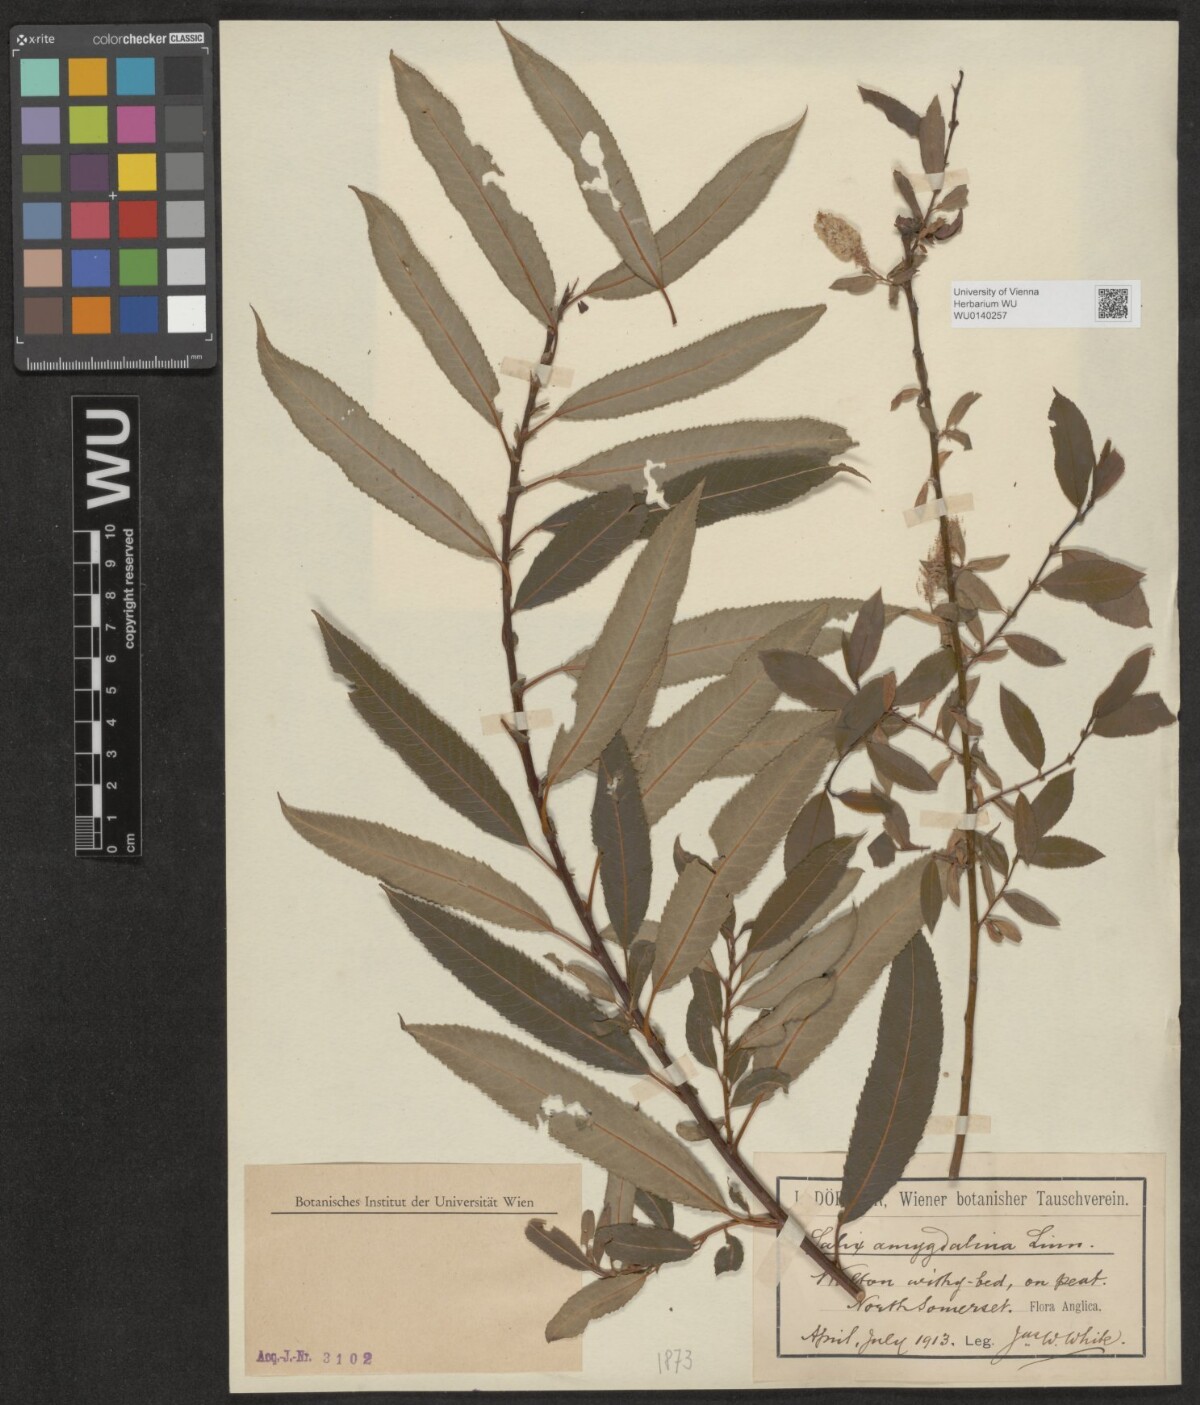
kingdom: Plantae
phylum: Tracheophyta
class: Magnoliopsida
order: Malpighiales
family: Salicaceae
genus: Salix
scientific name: Salix triandra
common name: Almond willow
